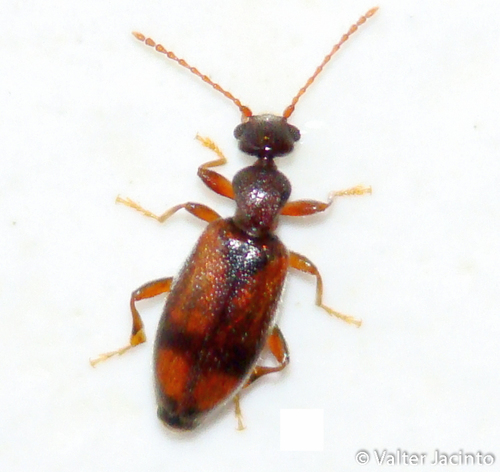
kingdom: Animalia
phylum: Arthropoda
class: Insecta
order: Coleoptera
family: Anthicidae
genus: Cordicollis
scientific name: Cordicollis instabilis
